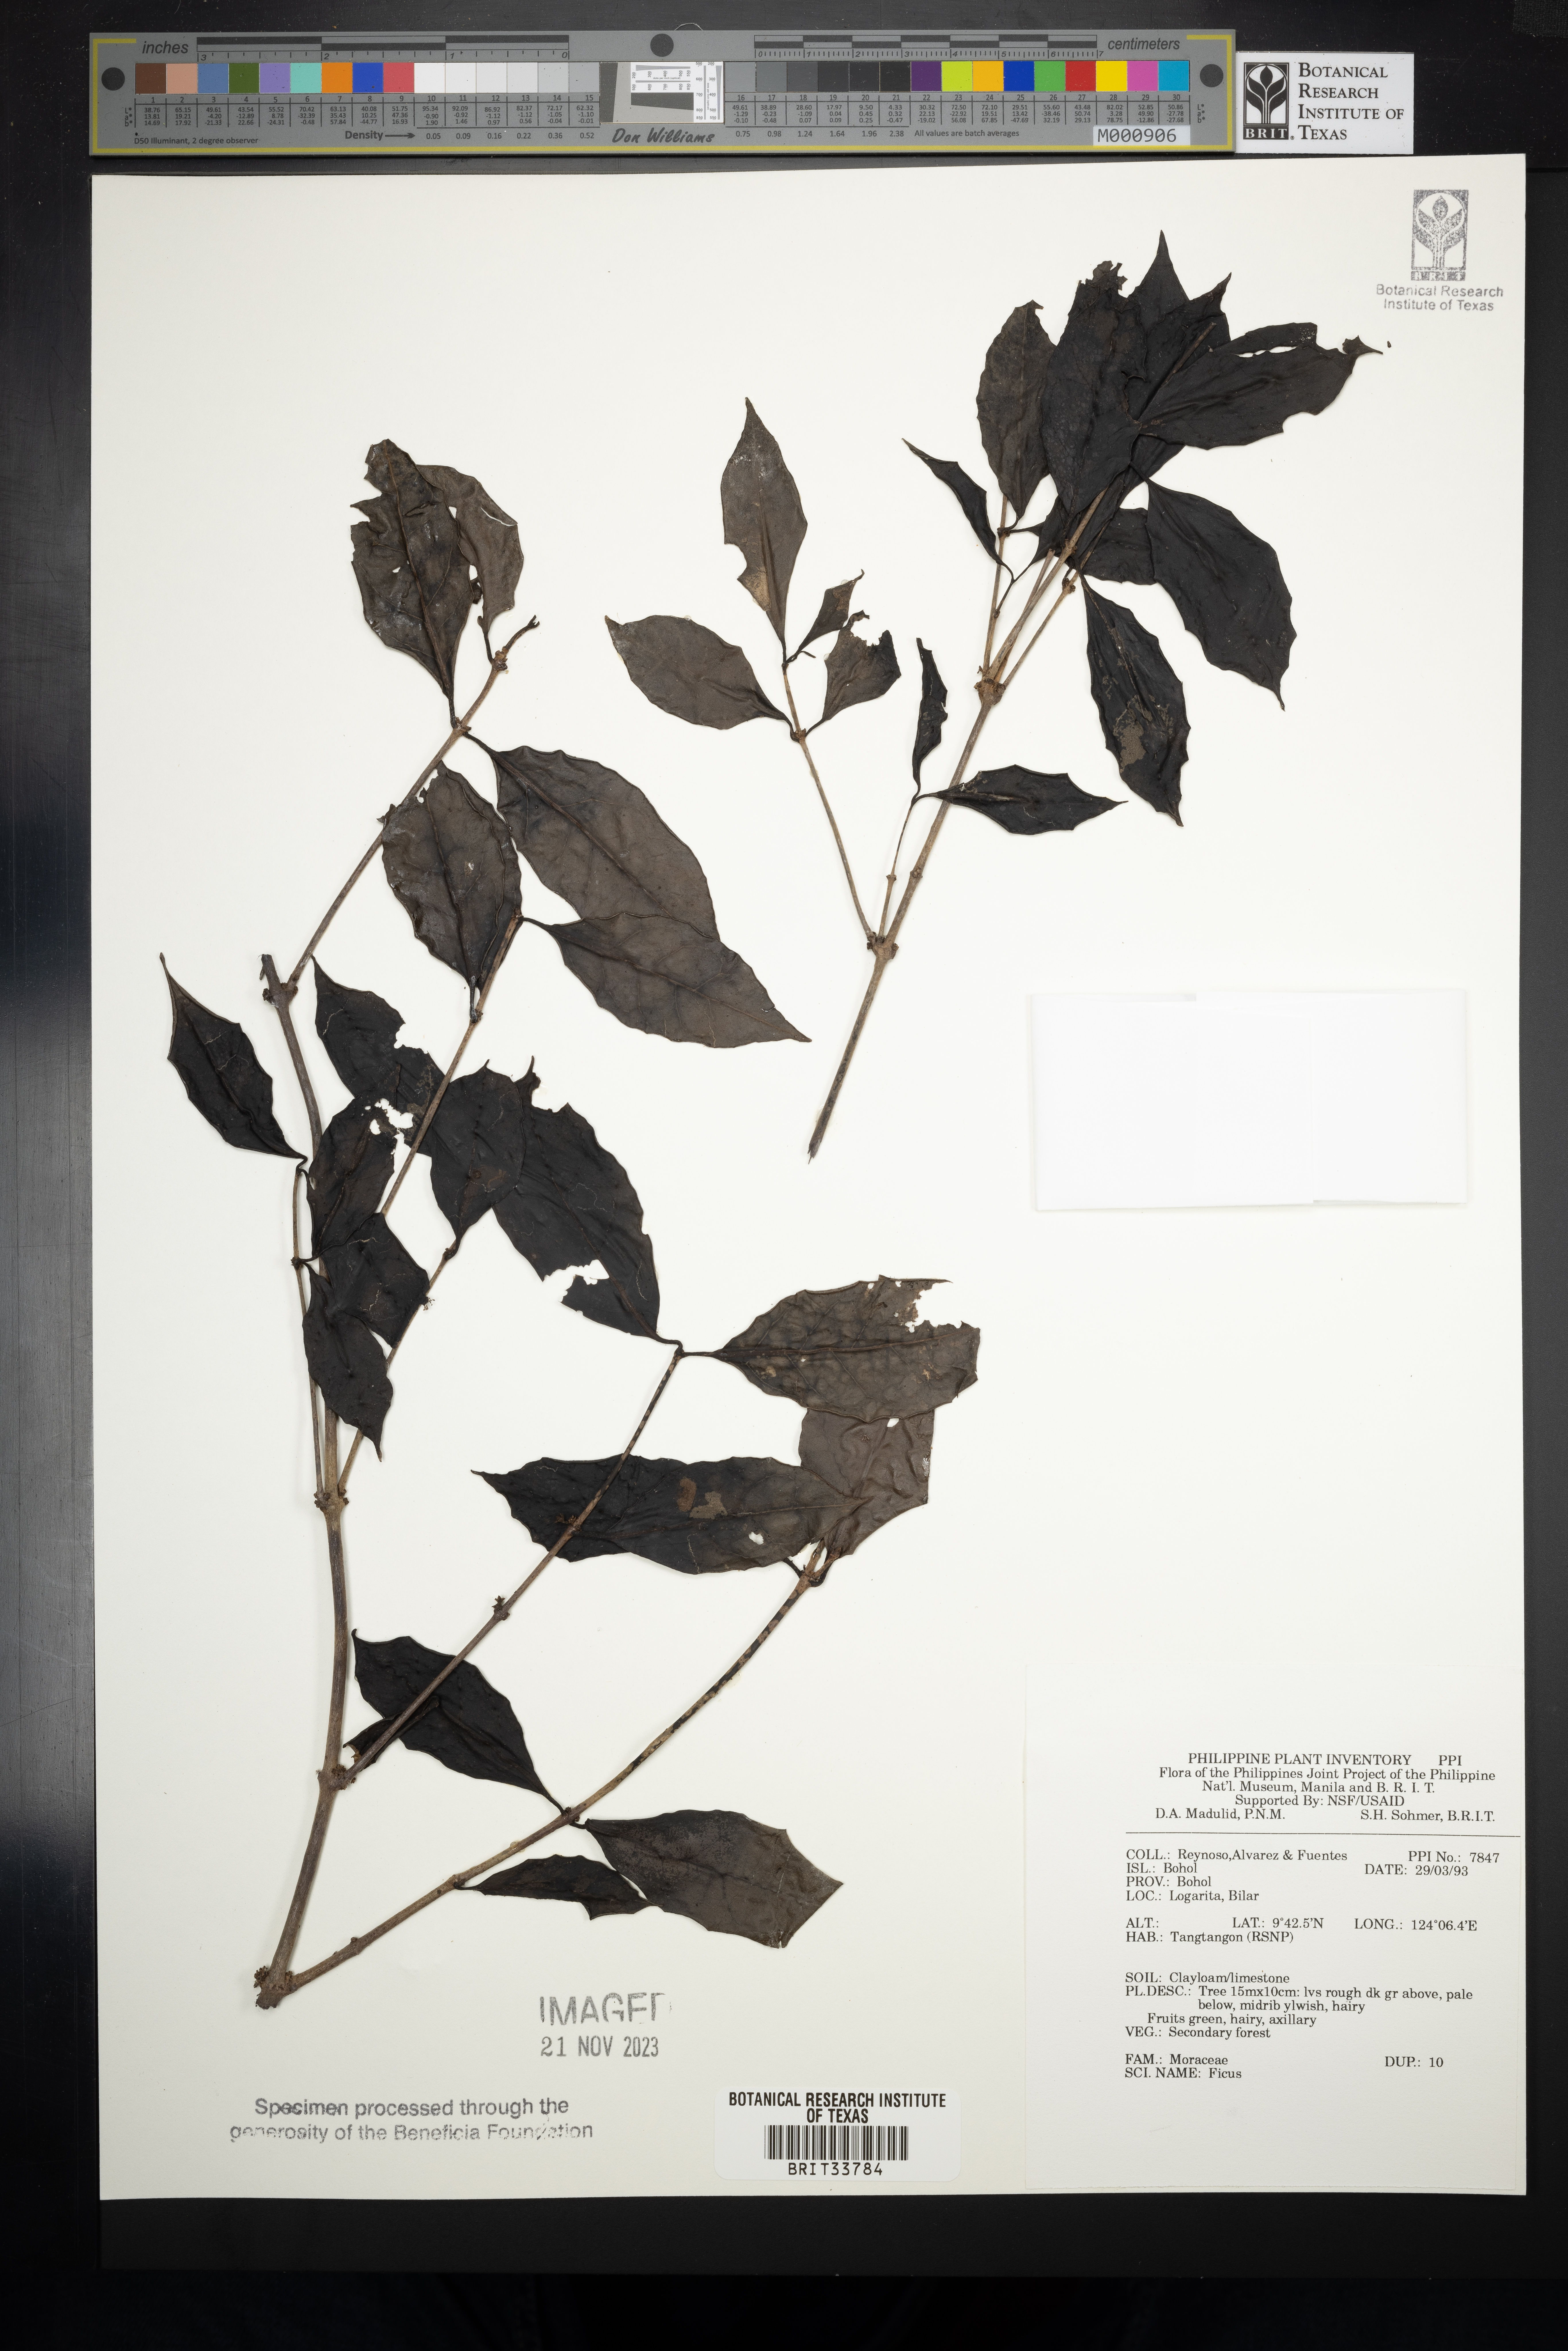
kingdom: Plantae
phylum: Tracheophyta
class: Magnoliopsida
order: Rosales
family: Moraceae
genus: Ficus
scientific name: Ficus
